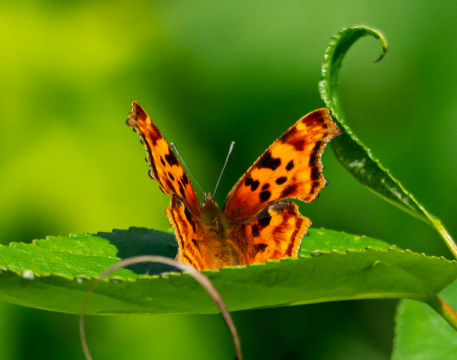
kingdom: Animalia
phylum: Arthropoda
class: Insecta
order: Lepidoptera
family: Nymphalidae
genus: Polygonia
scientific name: Polygonia satyrus
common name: Satyr Comma
